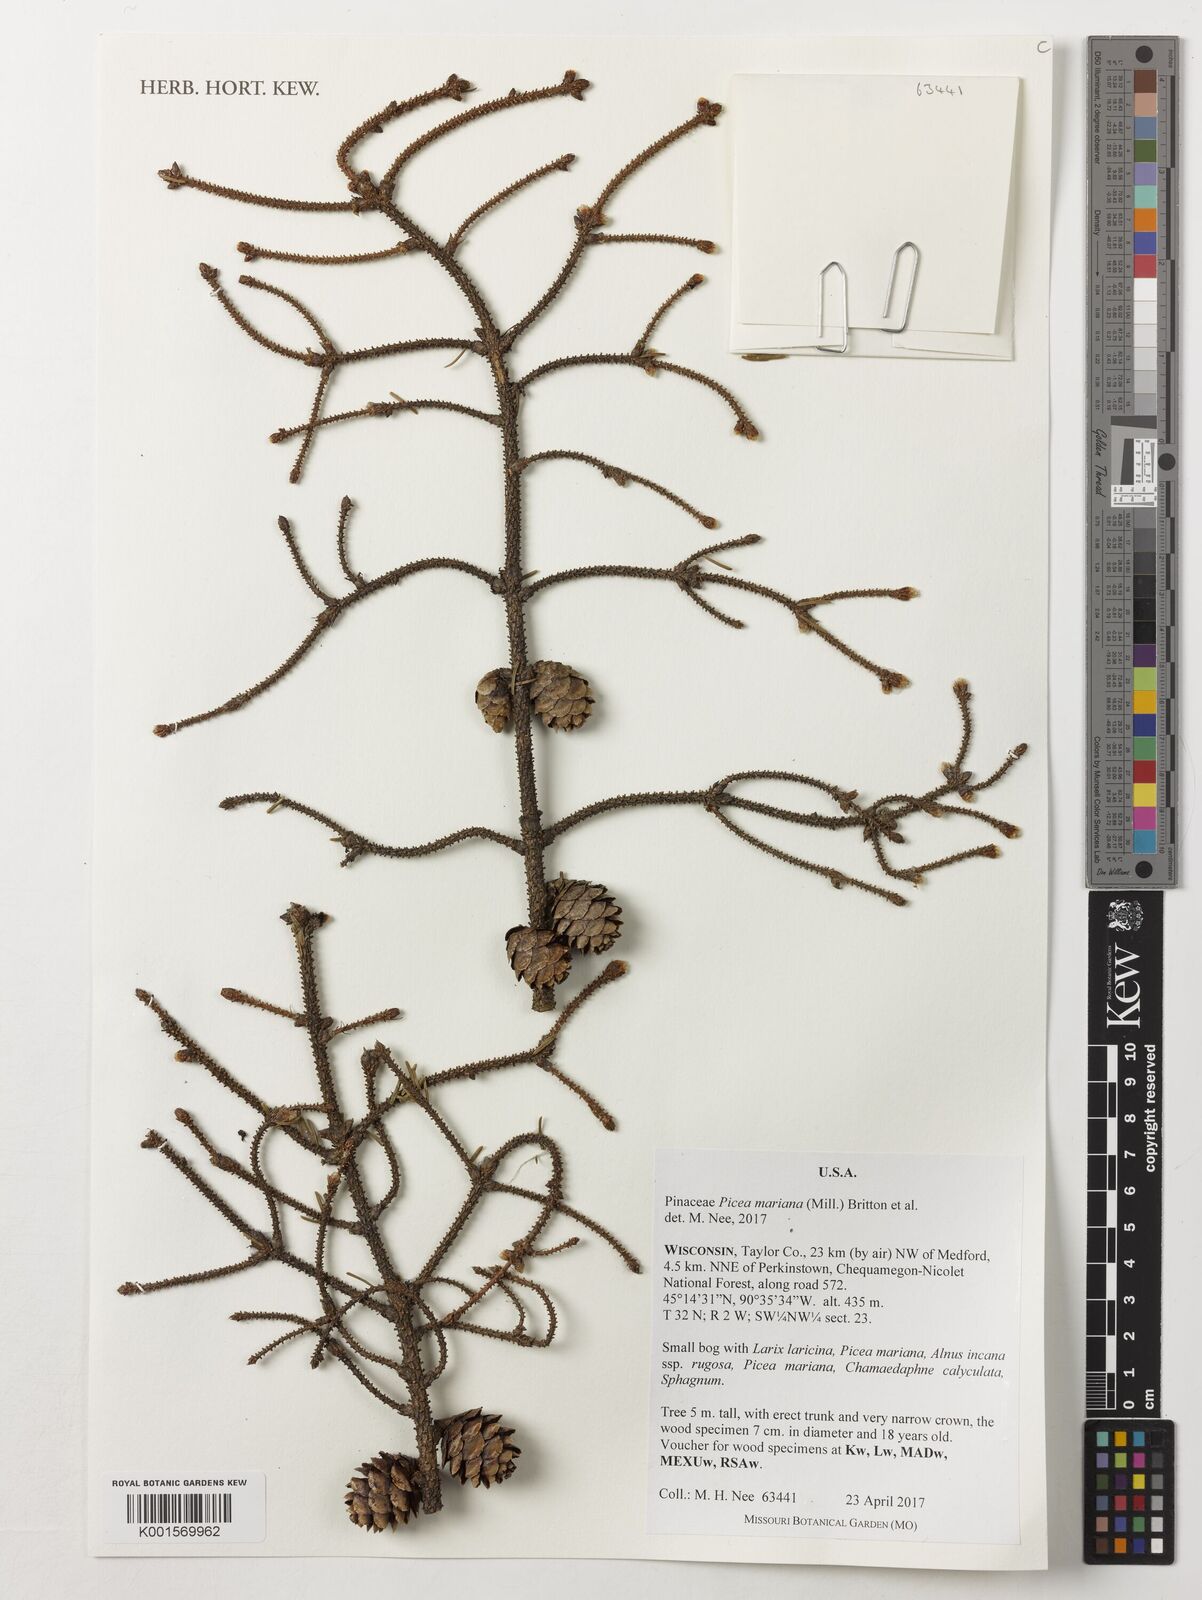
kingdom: Plantae
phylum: Tracheophyta
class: Pinopsida
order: Pinales
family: Pinaceae
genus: Picea
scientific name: Picea mariana
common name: Black spruce
